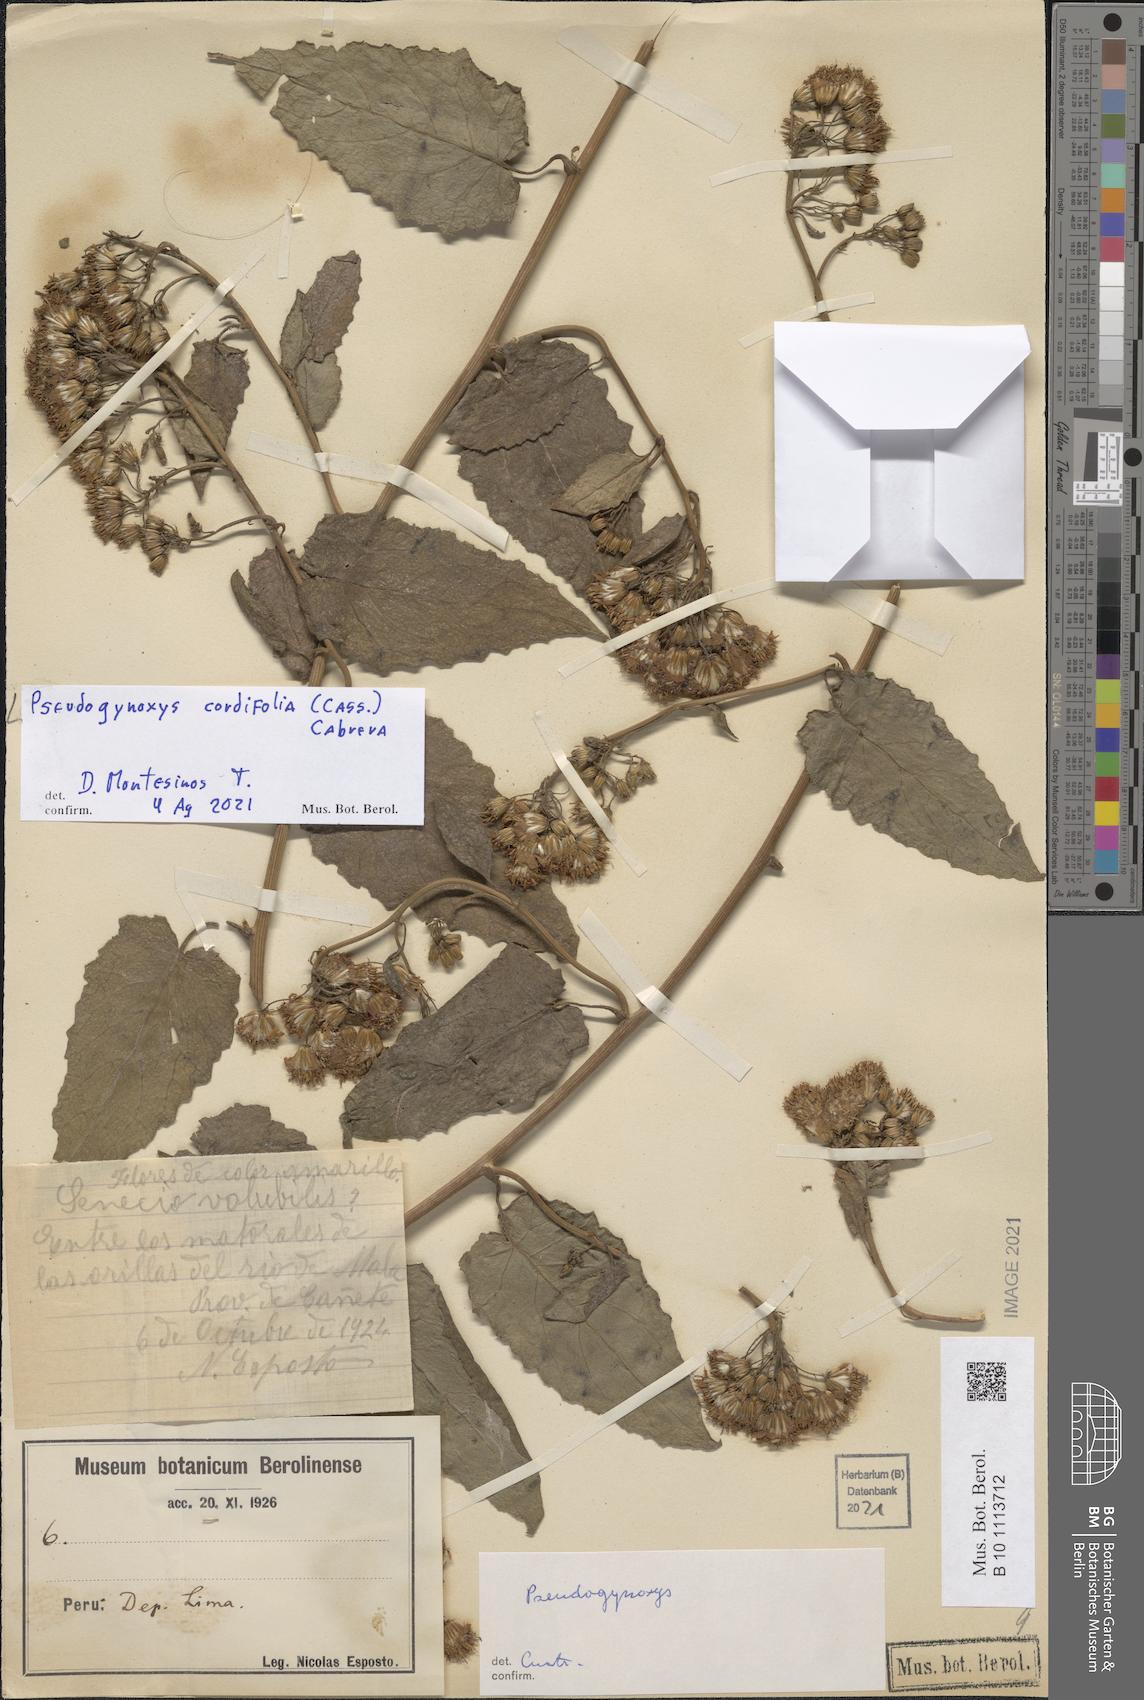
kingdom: Plantae
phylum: Tracheophyta
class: Magnoliopsida
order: Asterales
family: Asteraceae
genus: Pseudogynoxys
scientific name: Pseudogynoxys chenopodioides
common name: Mexican flamevine
